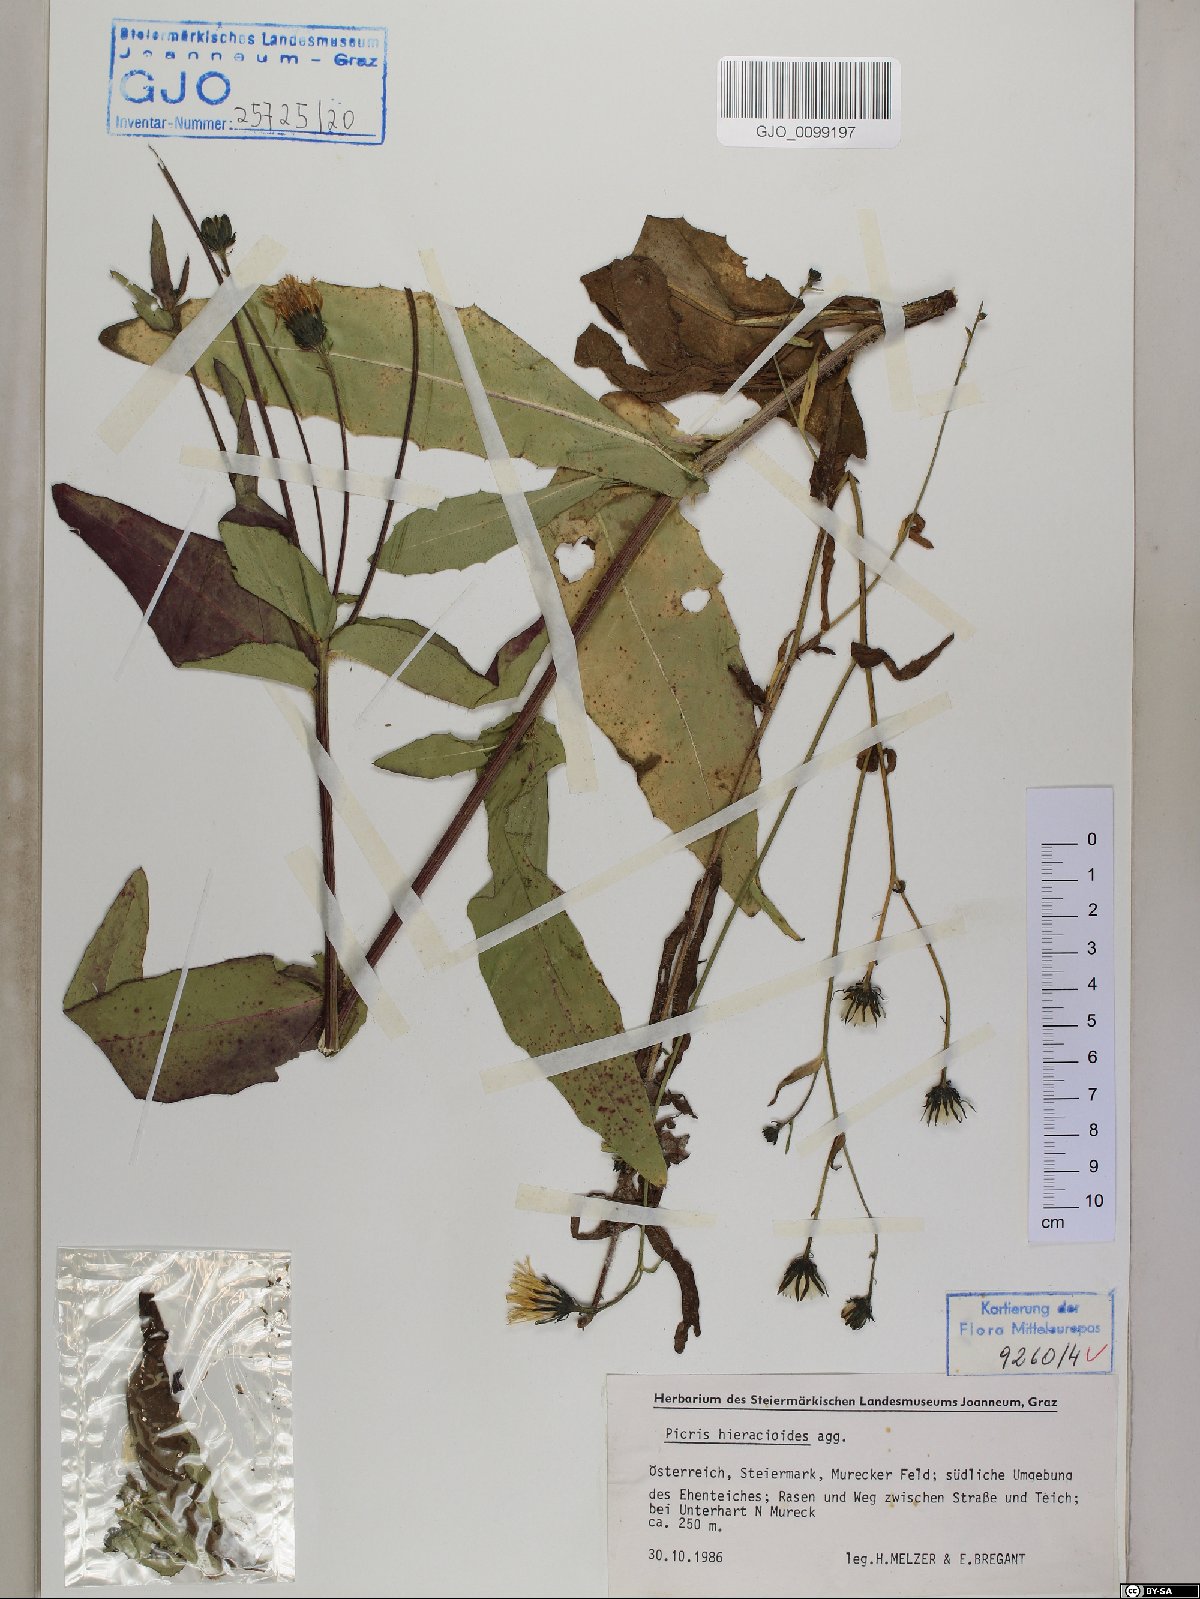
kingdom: Plantae
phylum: Tracheophyta
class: Magnoliopsida
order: Asterales
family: Asteraceae
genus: Picris
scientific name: Picris hieracioides
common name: Hawkweed oxtongue
